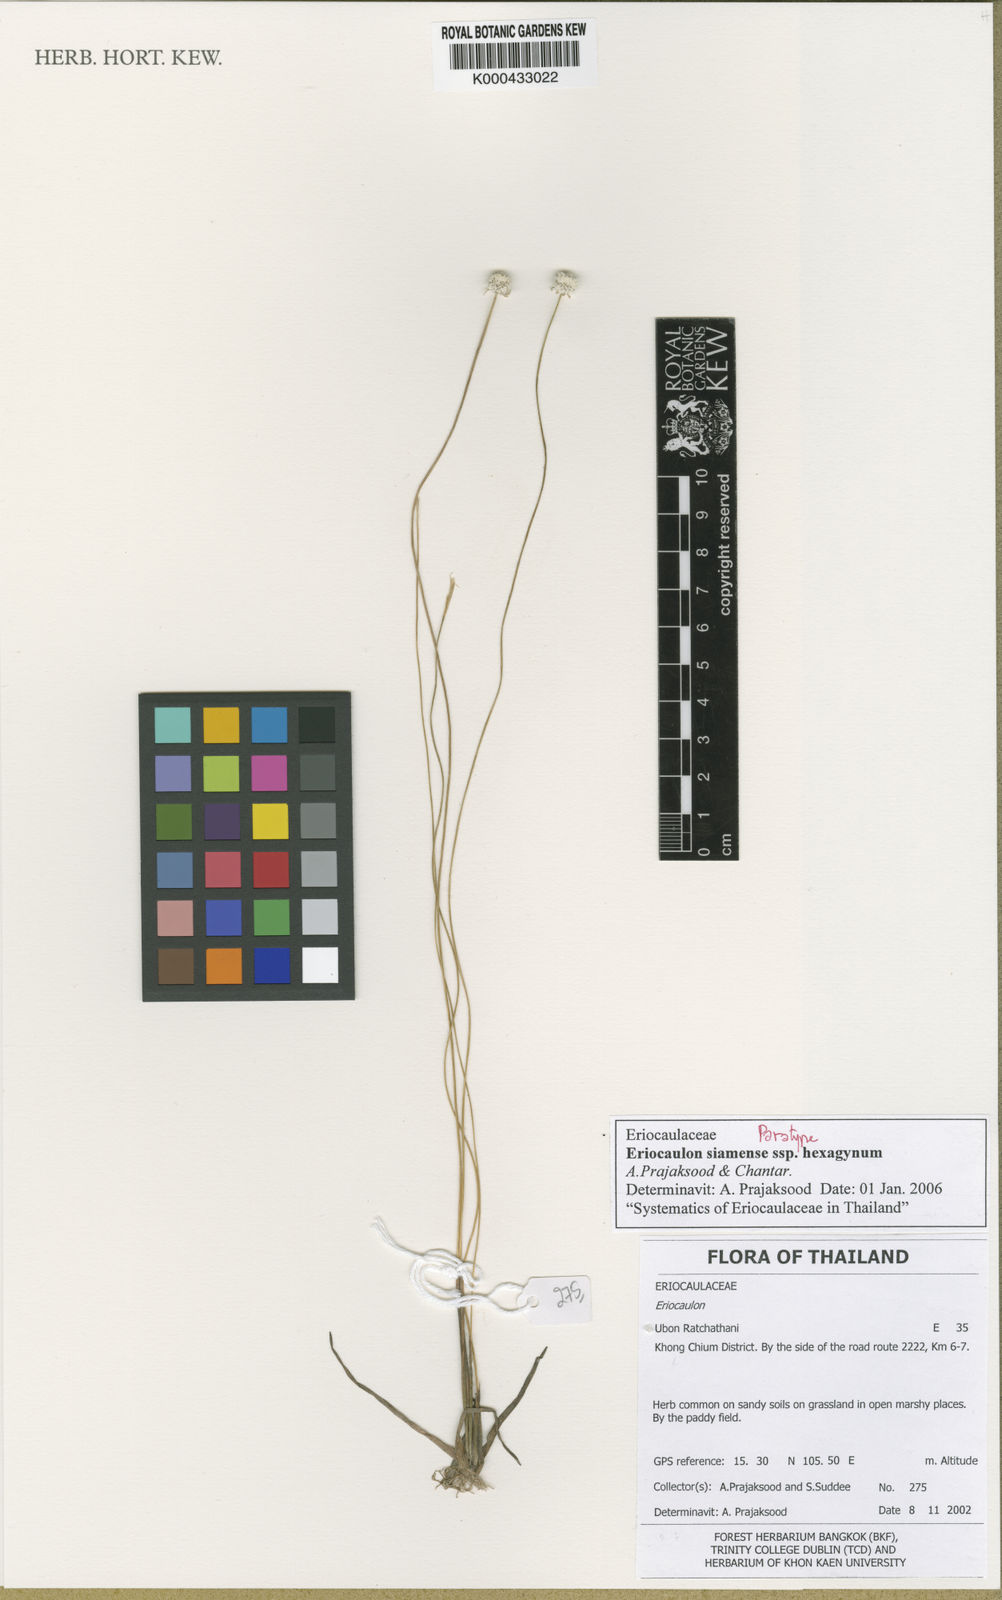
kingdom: Plantae
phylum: Tracheophyta
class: Liliopsida
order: Poales
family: Eriocaulaceae
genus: Eriocaulon
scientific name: Eriocaulon siamense
